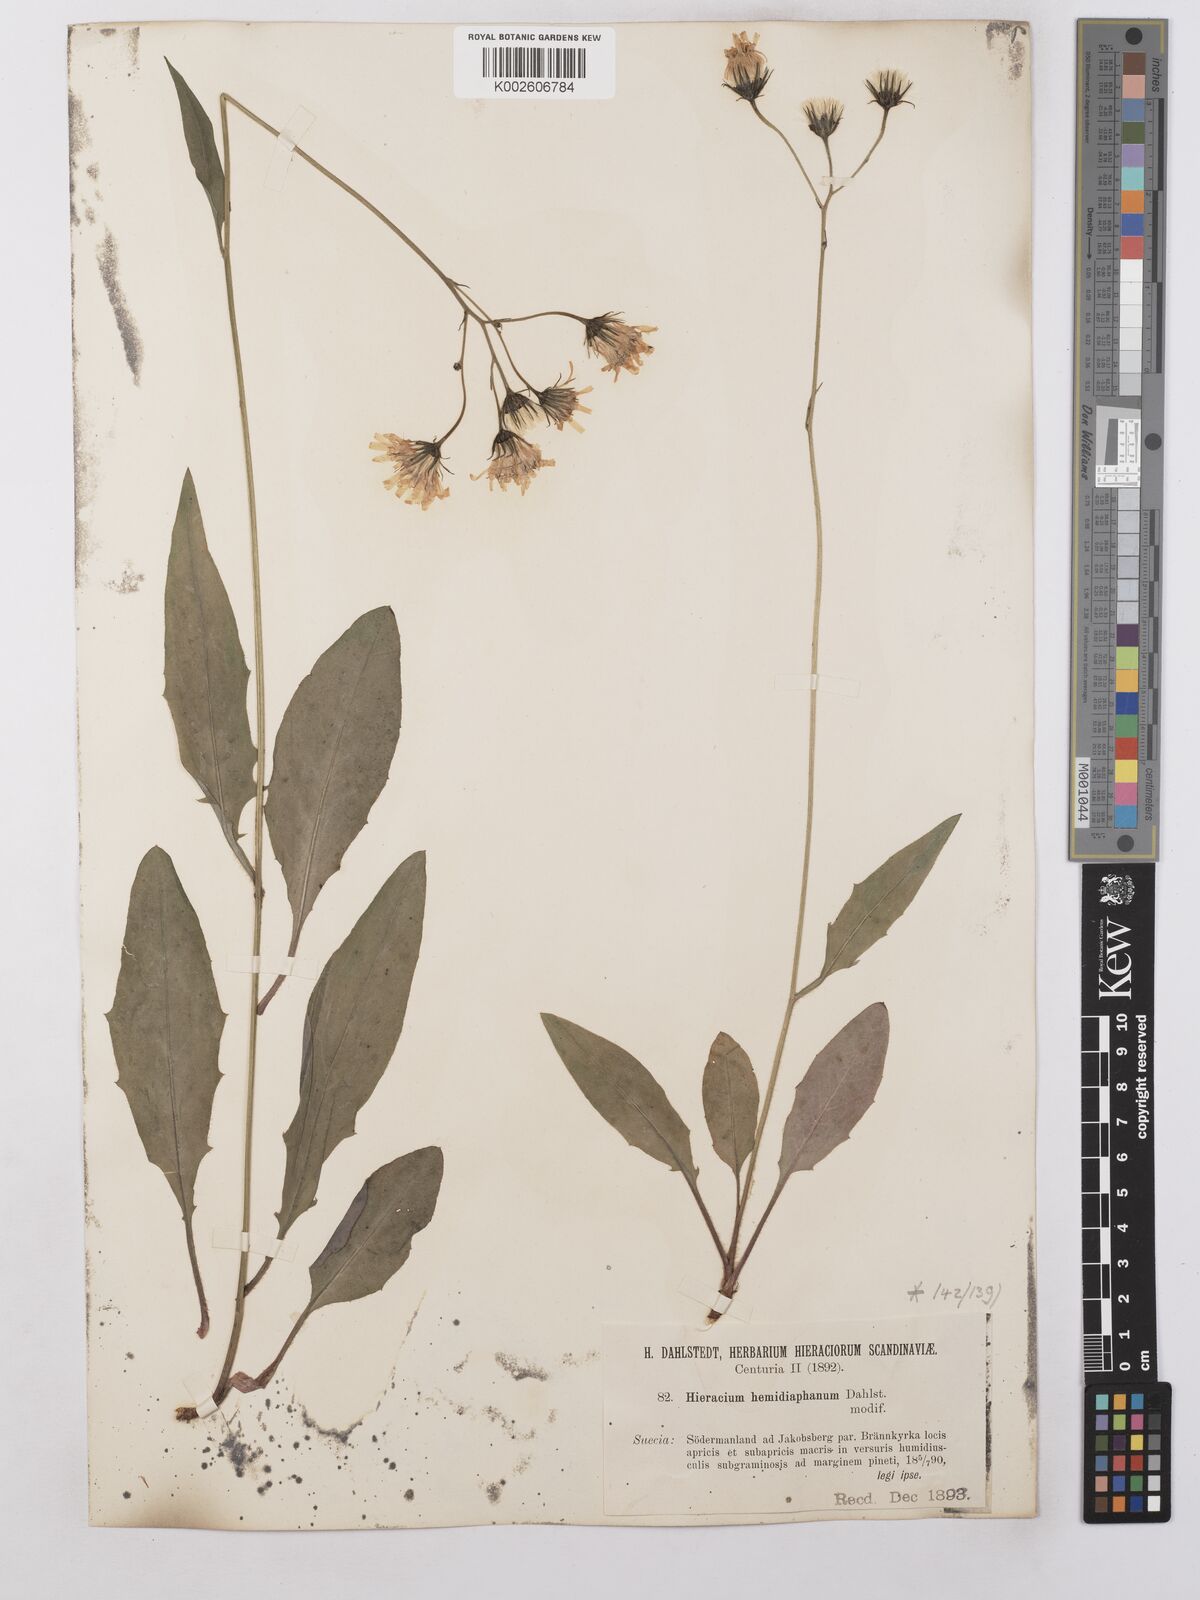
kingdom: Plantae
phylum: Tracheophyta
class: Magnoliopsida
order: Asterales
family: Asteraceae
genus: Hieracium
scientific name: Hieracium lachenalii
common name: Common hawkweed
